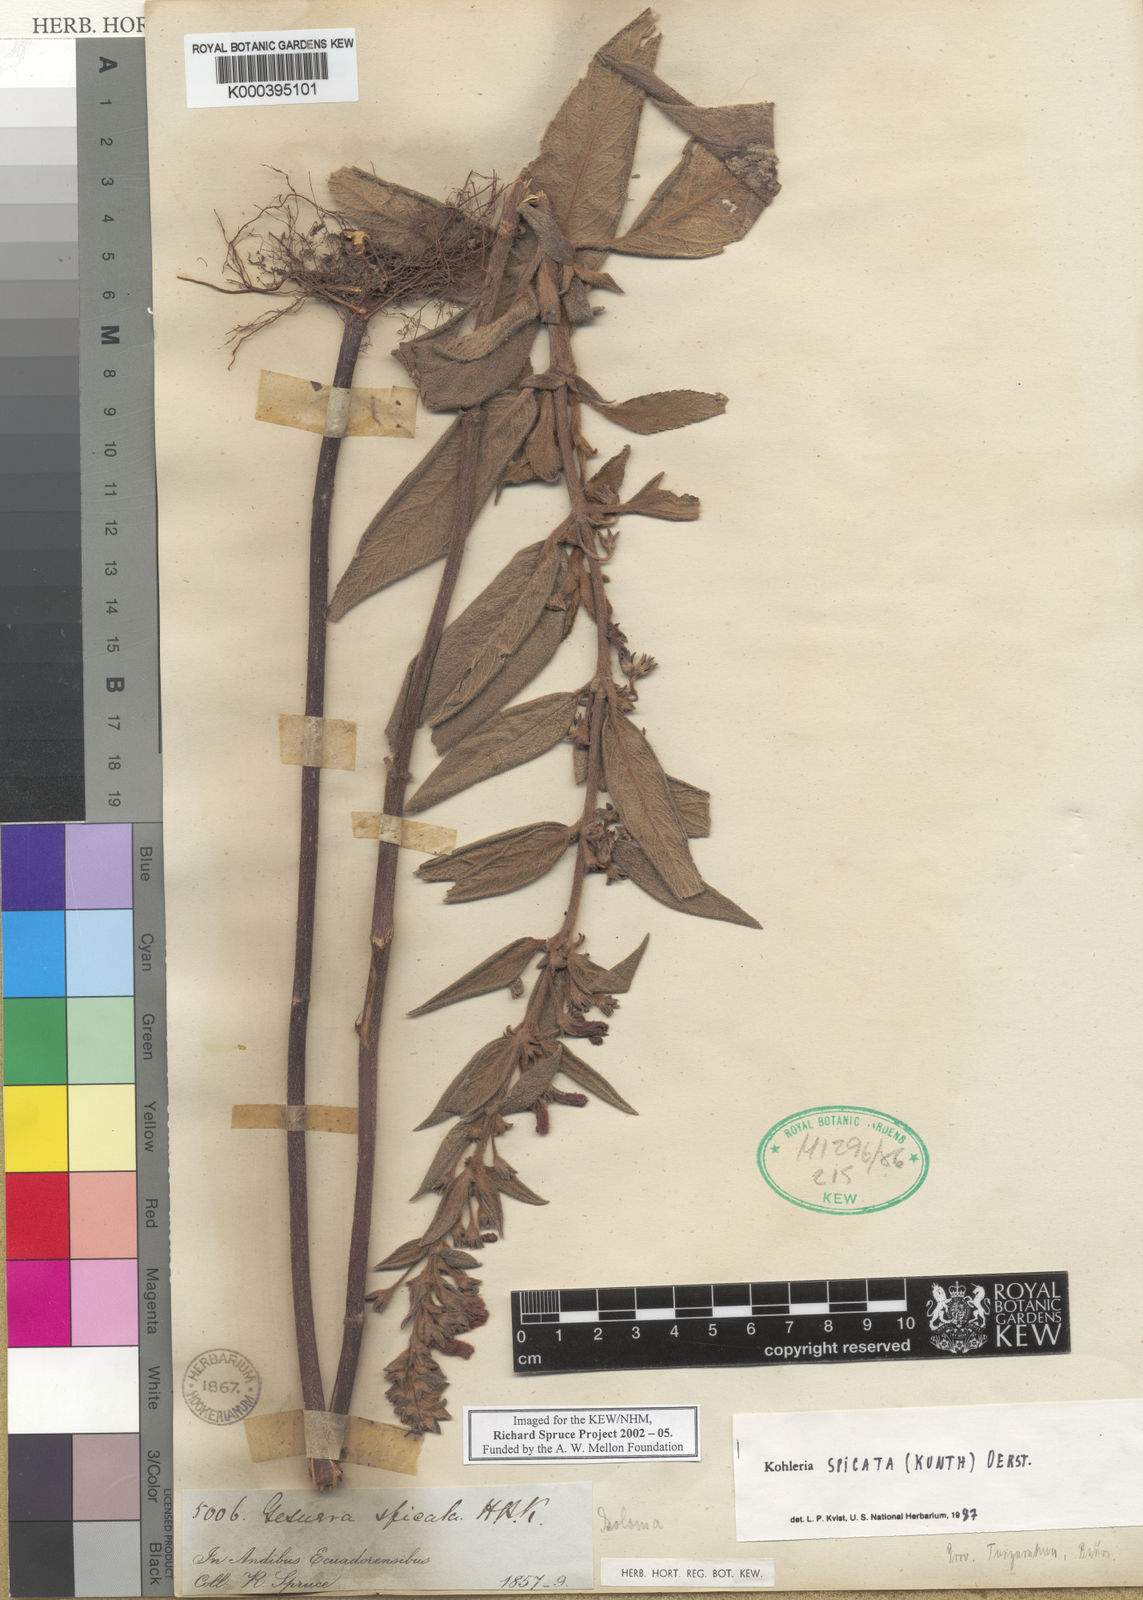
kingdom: Plantae
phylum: Tracheophyta
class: Magnoliopsida
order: Lamiales
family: Gesneriaceae
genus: Kohleria
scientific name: Kohleria spicata
